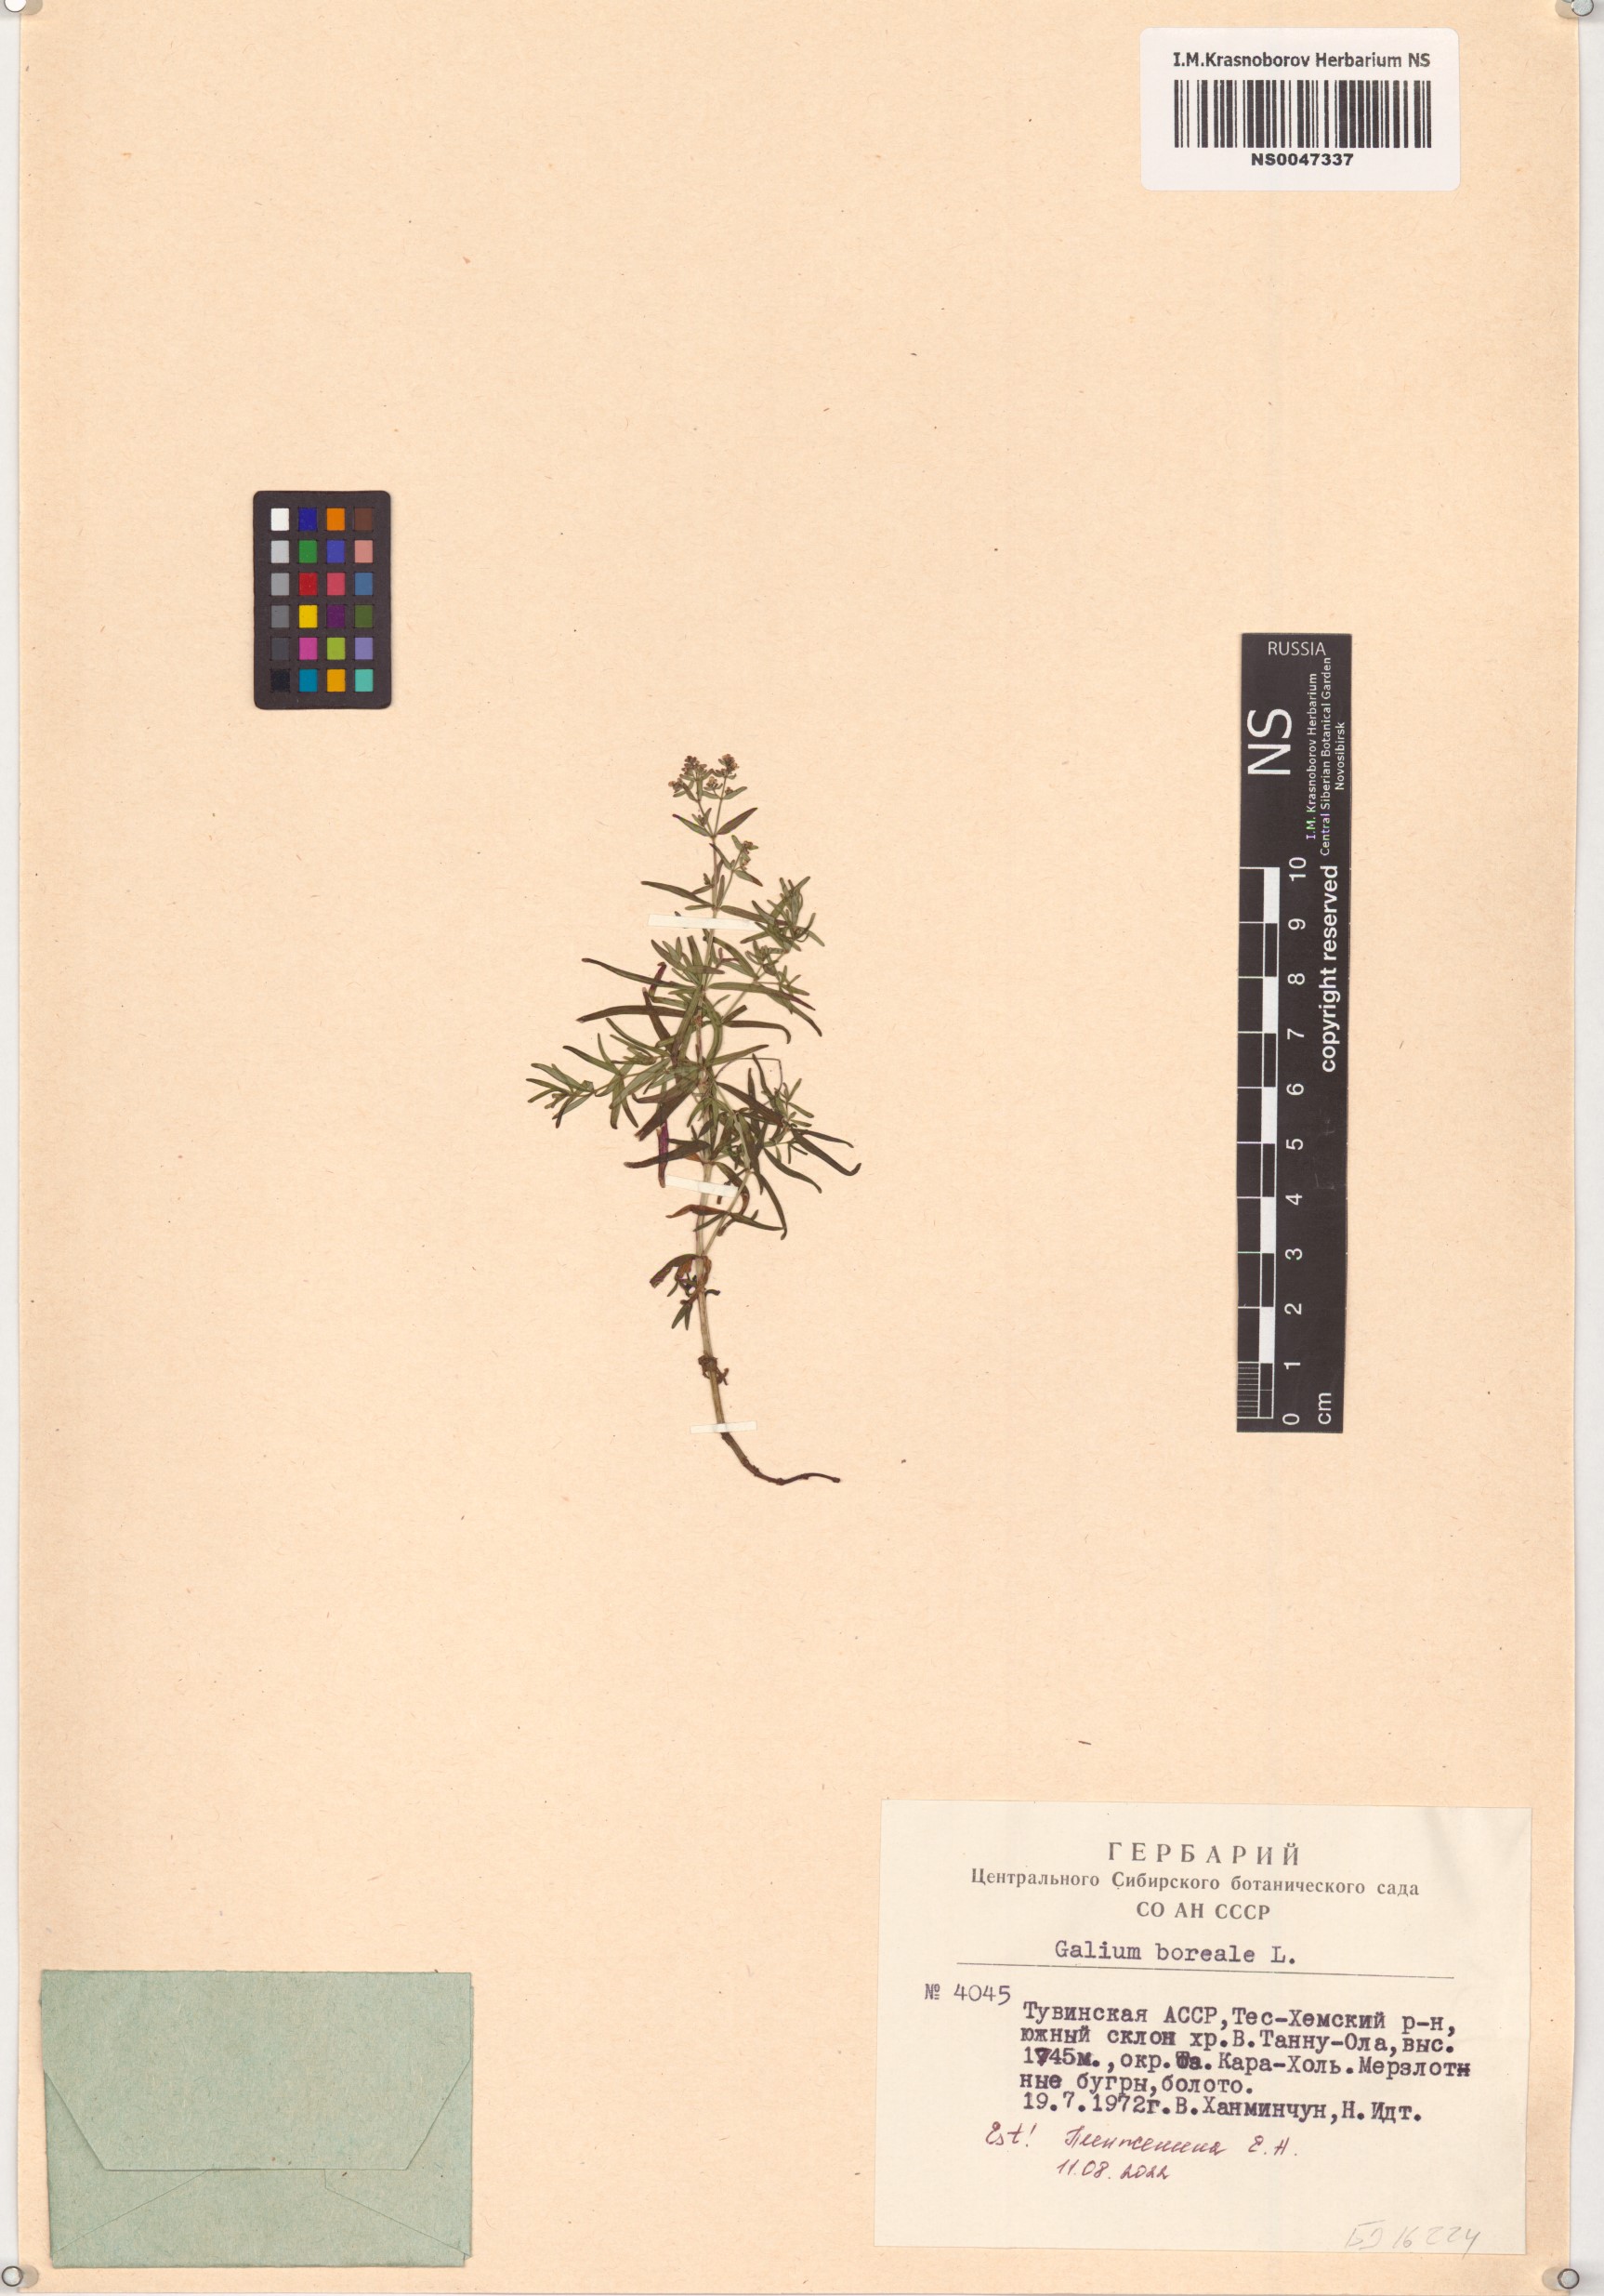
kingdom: Plantae
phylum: Tracheophyta
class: Magnoliopsida
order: Gentianales
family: Rubiaceae
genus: Galium
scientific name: Galium boreale
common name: Northern bedstraw
